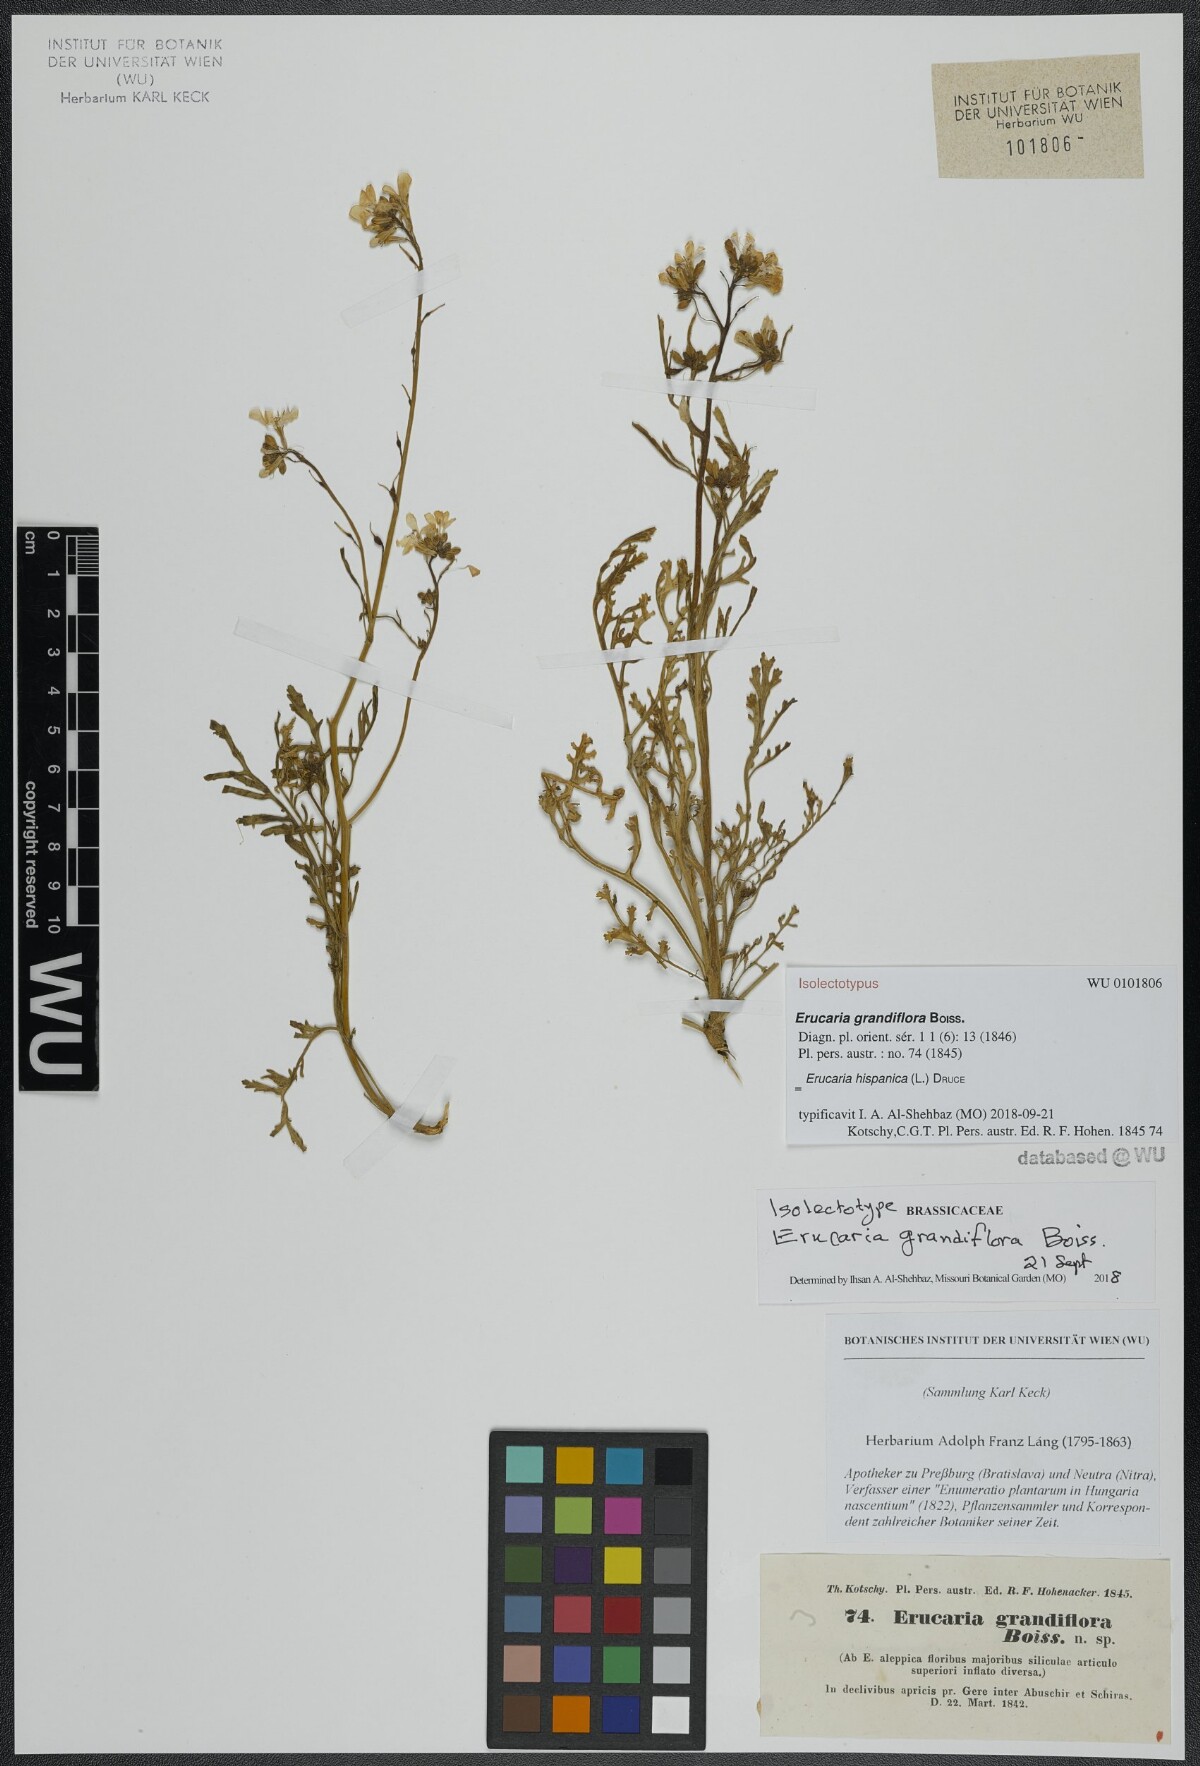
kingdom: Plantae
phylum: Tracheophyta
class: Magnoliopsida
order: Brassicales
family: Brassicaceae
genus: Erucaria
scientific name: Erucaria hispanica
